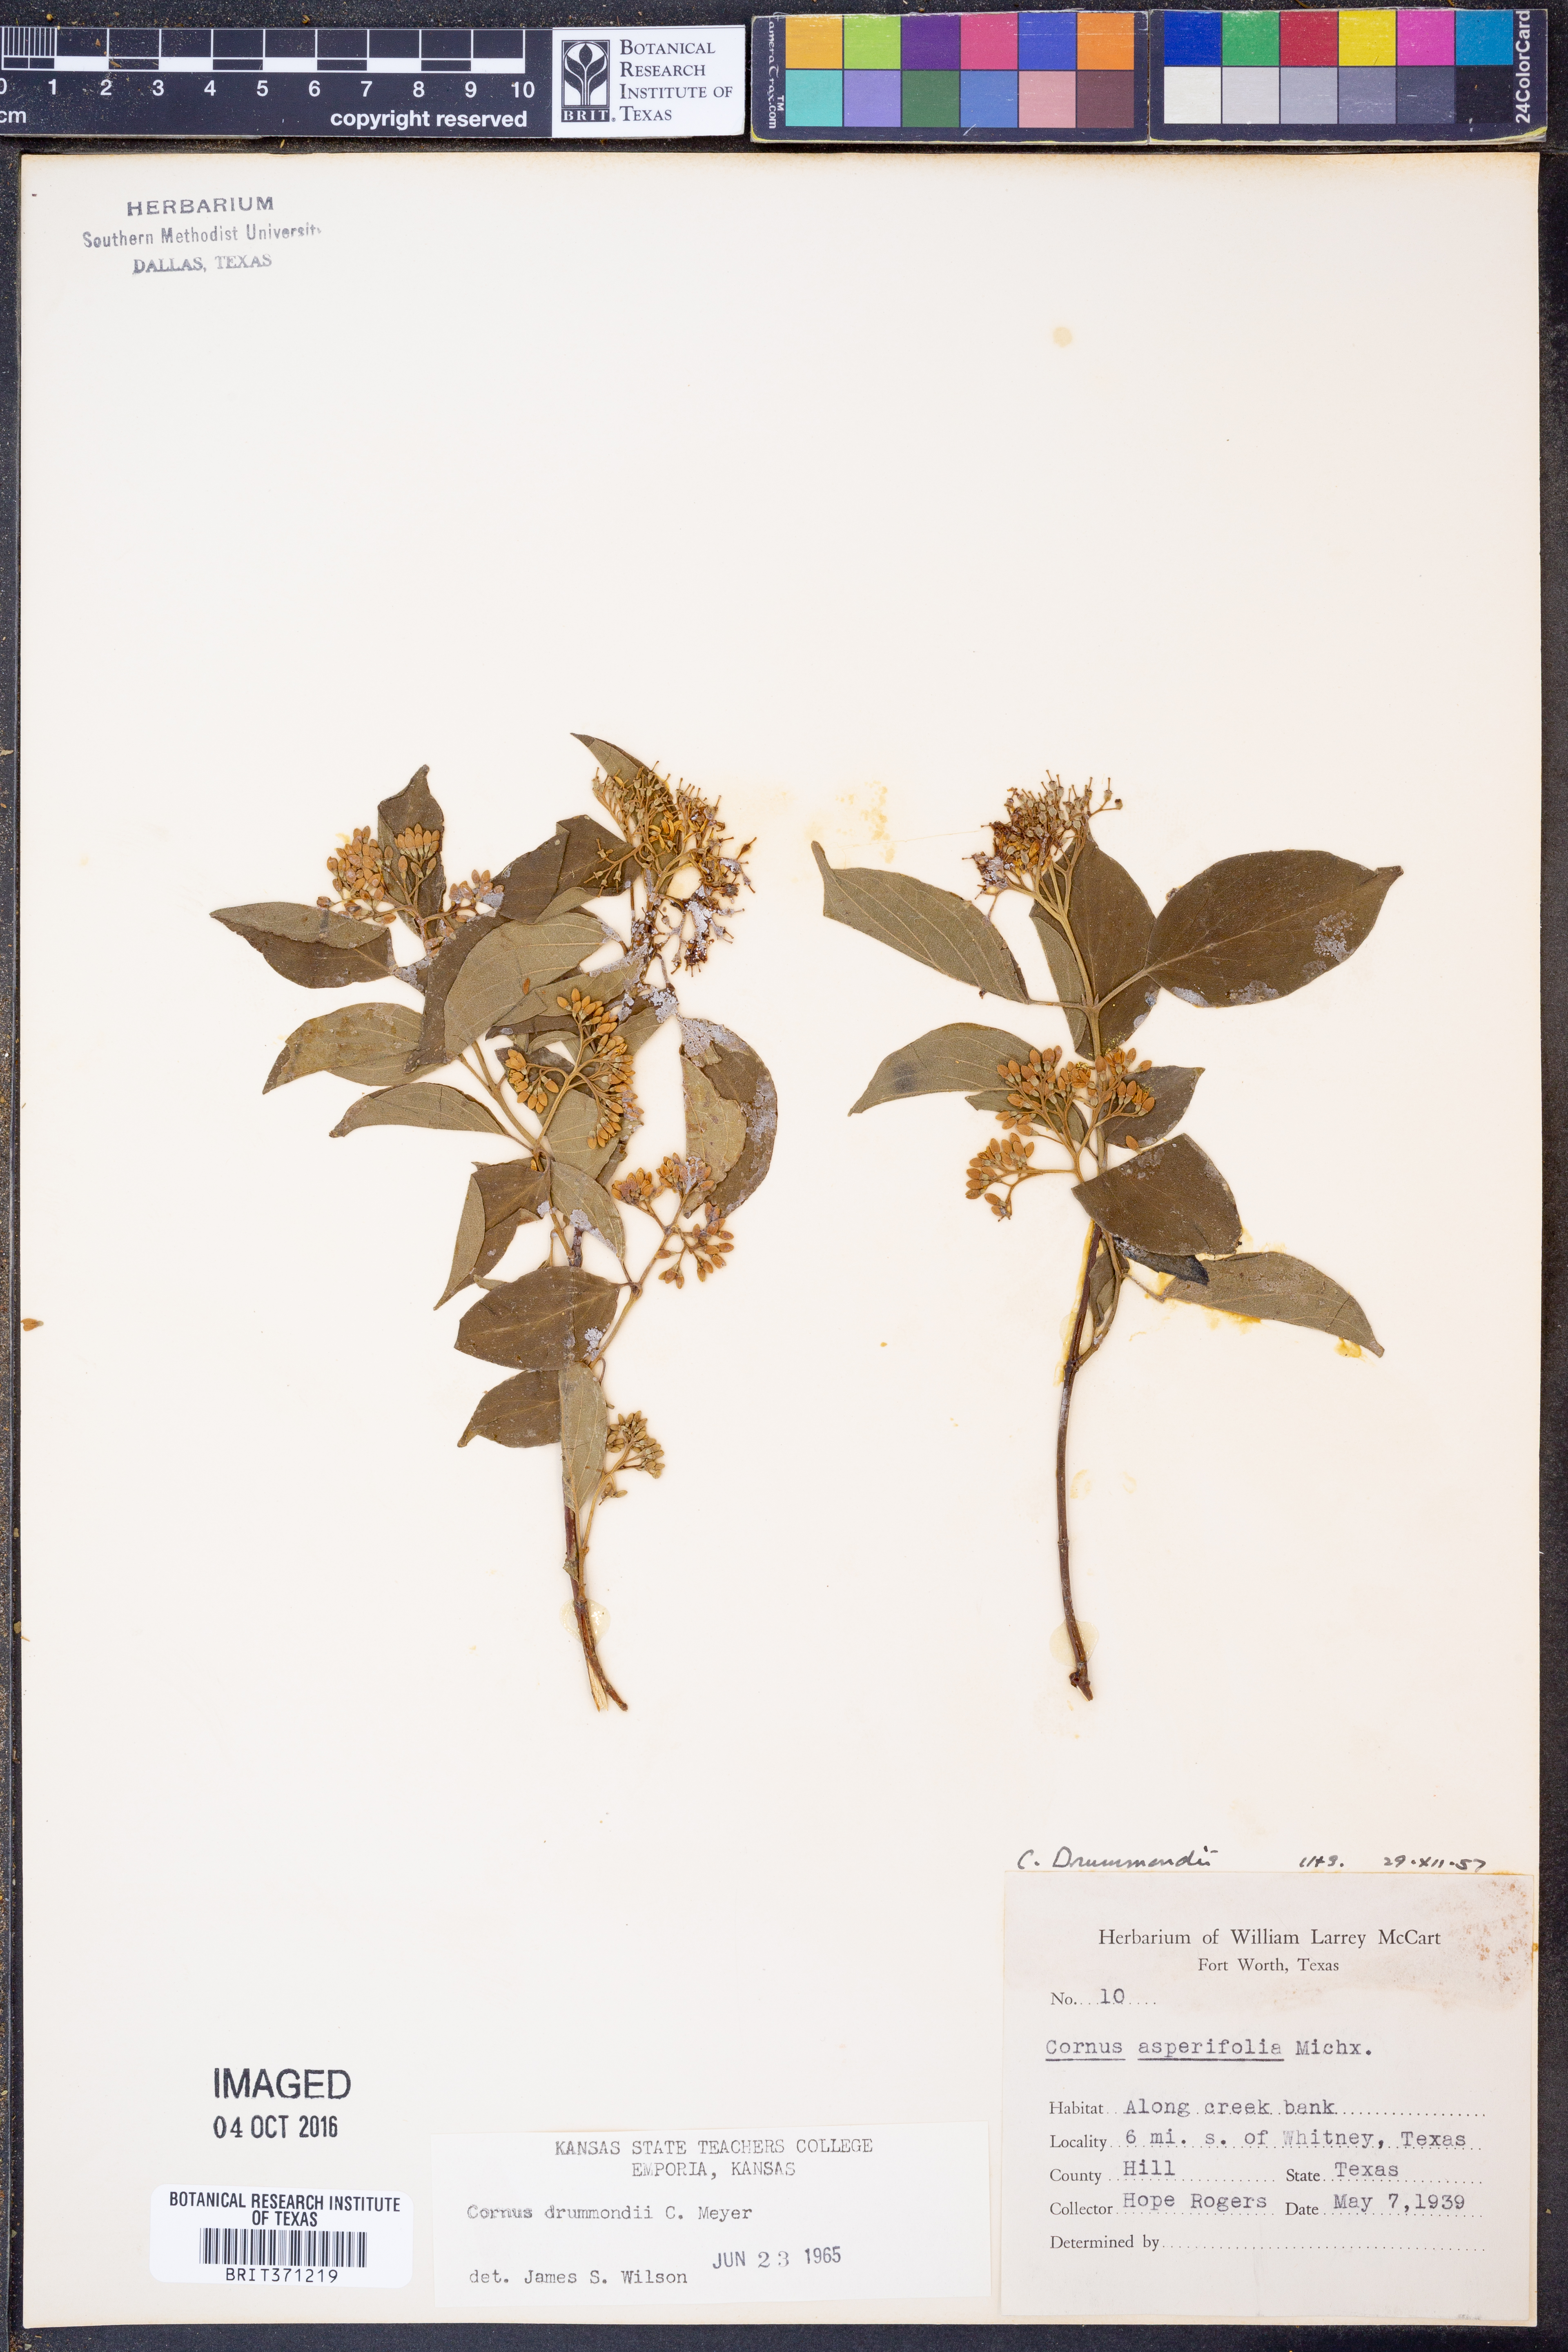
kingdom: Plantae
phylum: Tracheophyta
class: Magnoliopsida
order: Cornales
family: Cornaceae
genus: Cornus
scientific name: Cornus drummondii
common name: Rough-leaf dogwood
